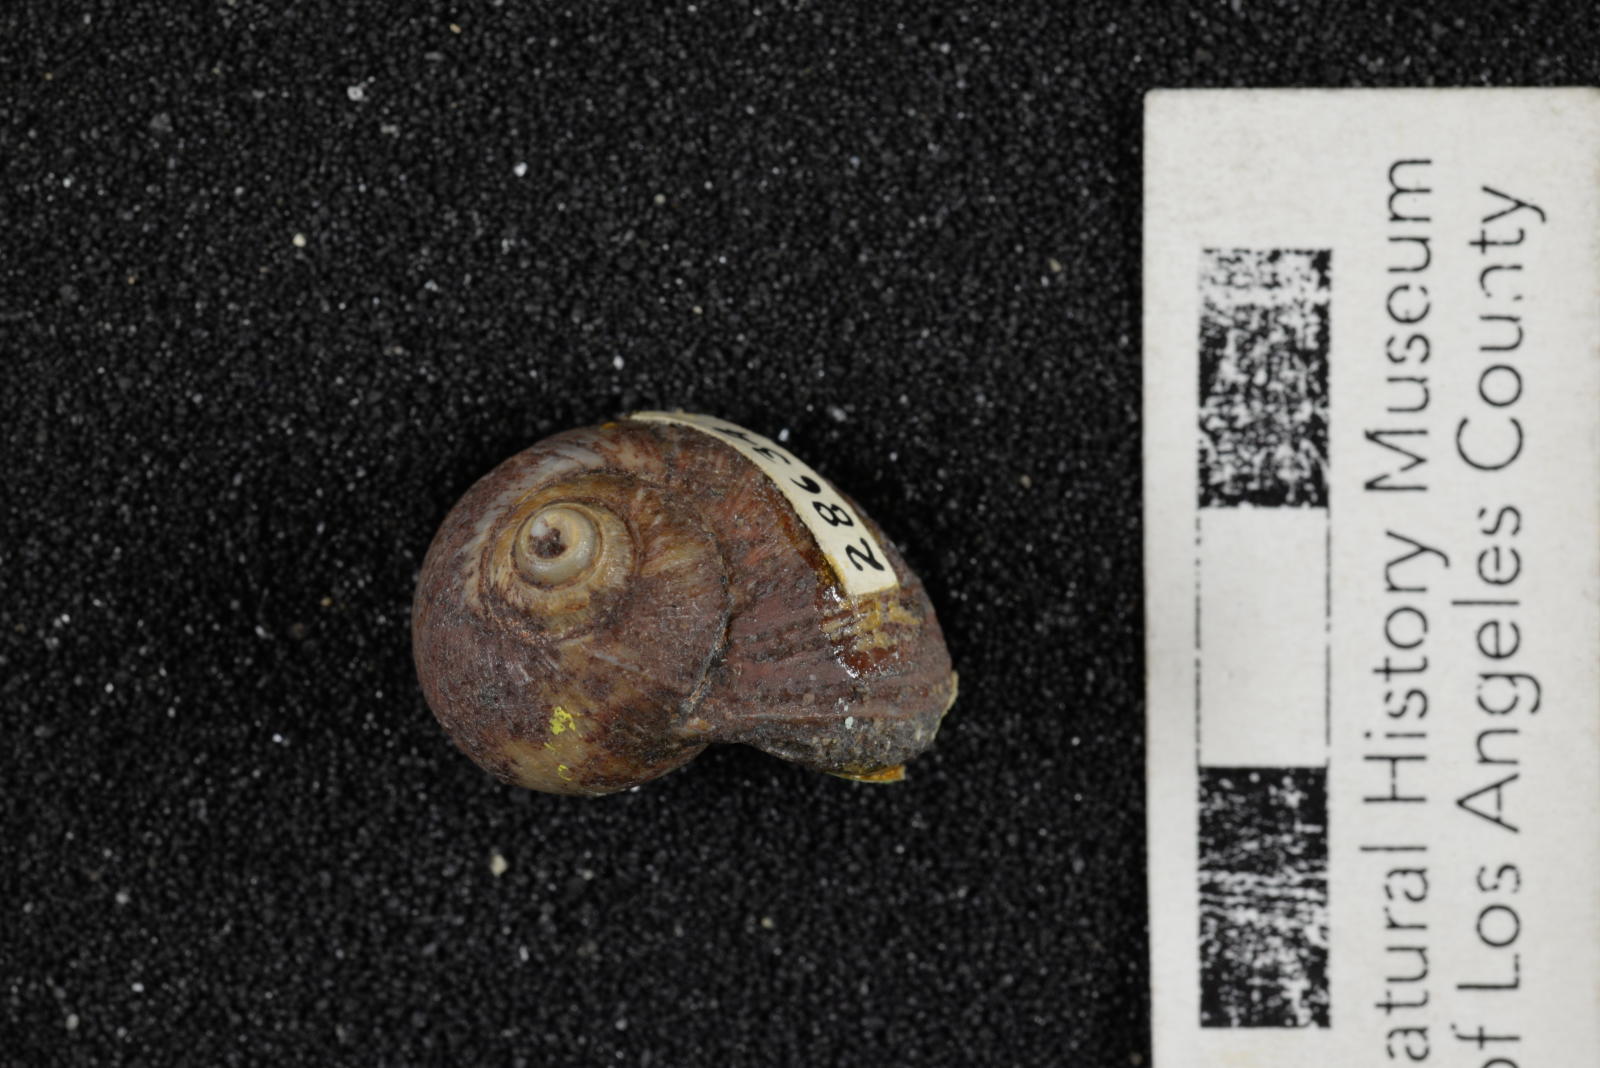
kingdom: Animalia
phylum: Mollusca
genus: Ampullina
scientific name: Ampullina
